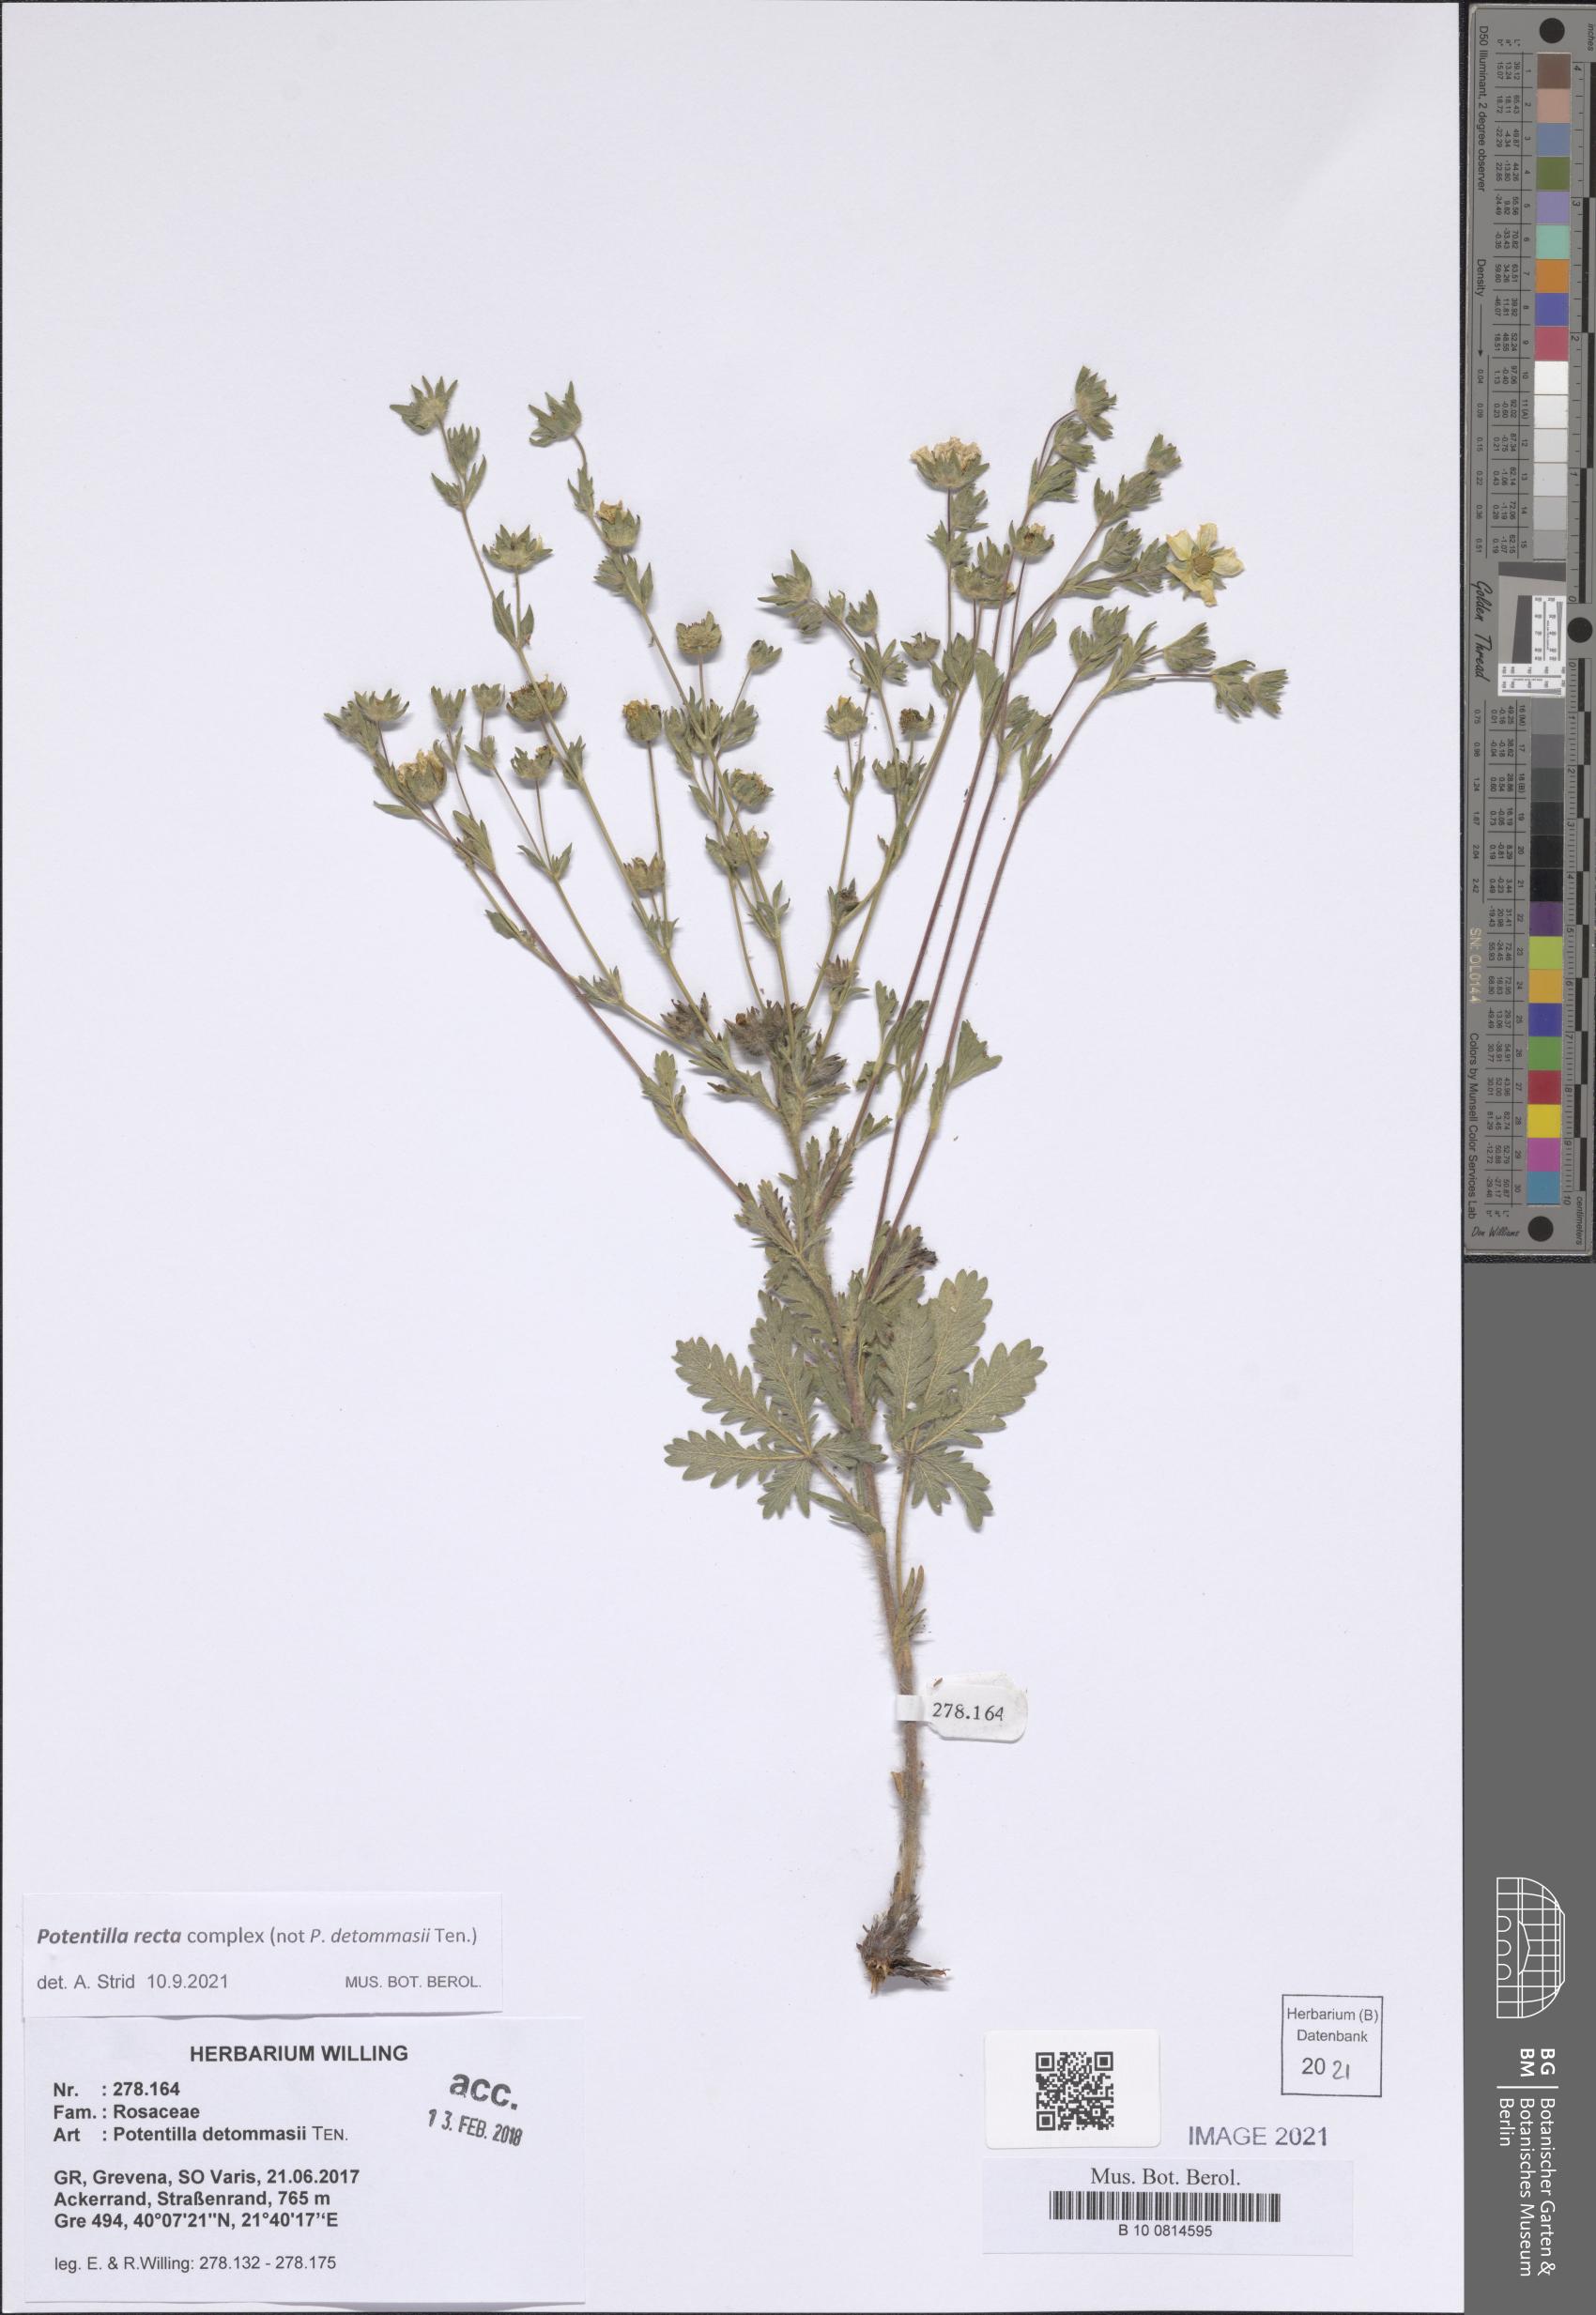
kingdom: Plantae
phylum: Tracheophyta
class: Magnoliopsida
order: Rosales
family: Rosaceae
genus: Potentilla
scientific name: Potentilla recta
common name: Sulphur cinquefoil
